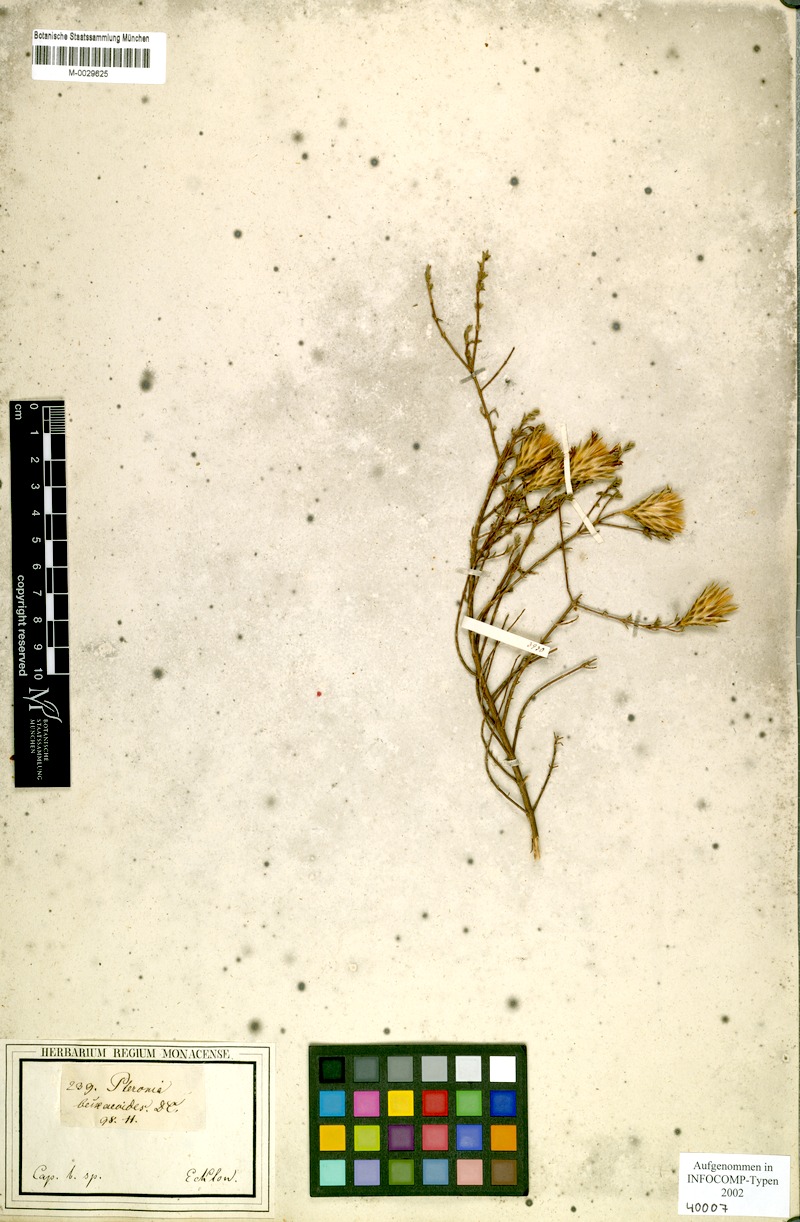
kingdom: Plantae
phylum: Tracheophyta
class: Magnoliopsida
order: Asterales
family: Asteraceae
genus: Pteronia
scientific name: Pteronia beckeoides
